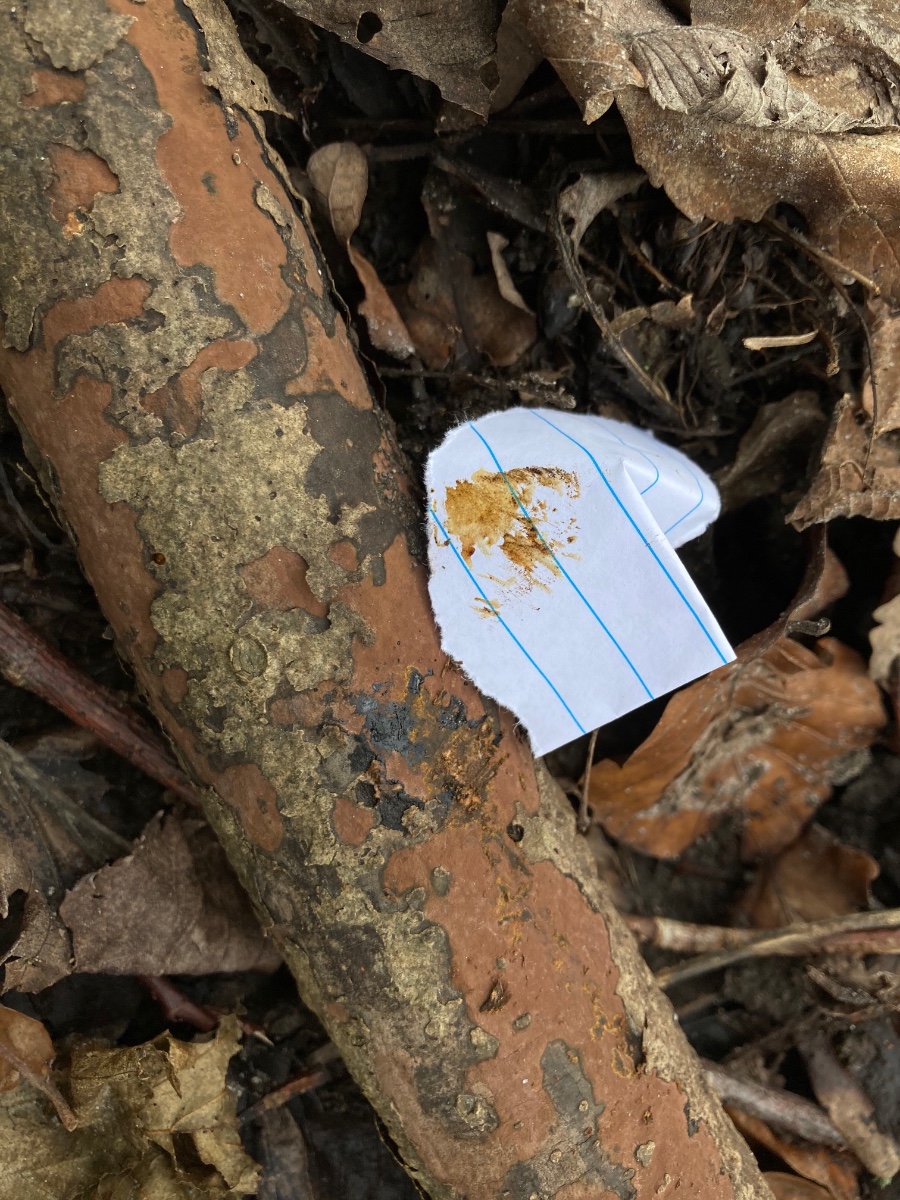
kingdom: Fungi
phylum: Ascomycota
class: Sordariomycetes
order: Xylariales
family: Hypoxylaceae
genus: Hypoxylon
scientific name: Hypoxylon petriniae
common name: nedsænket kulbær
